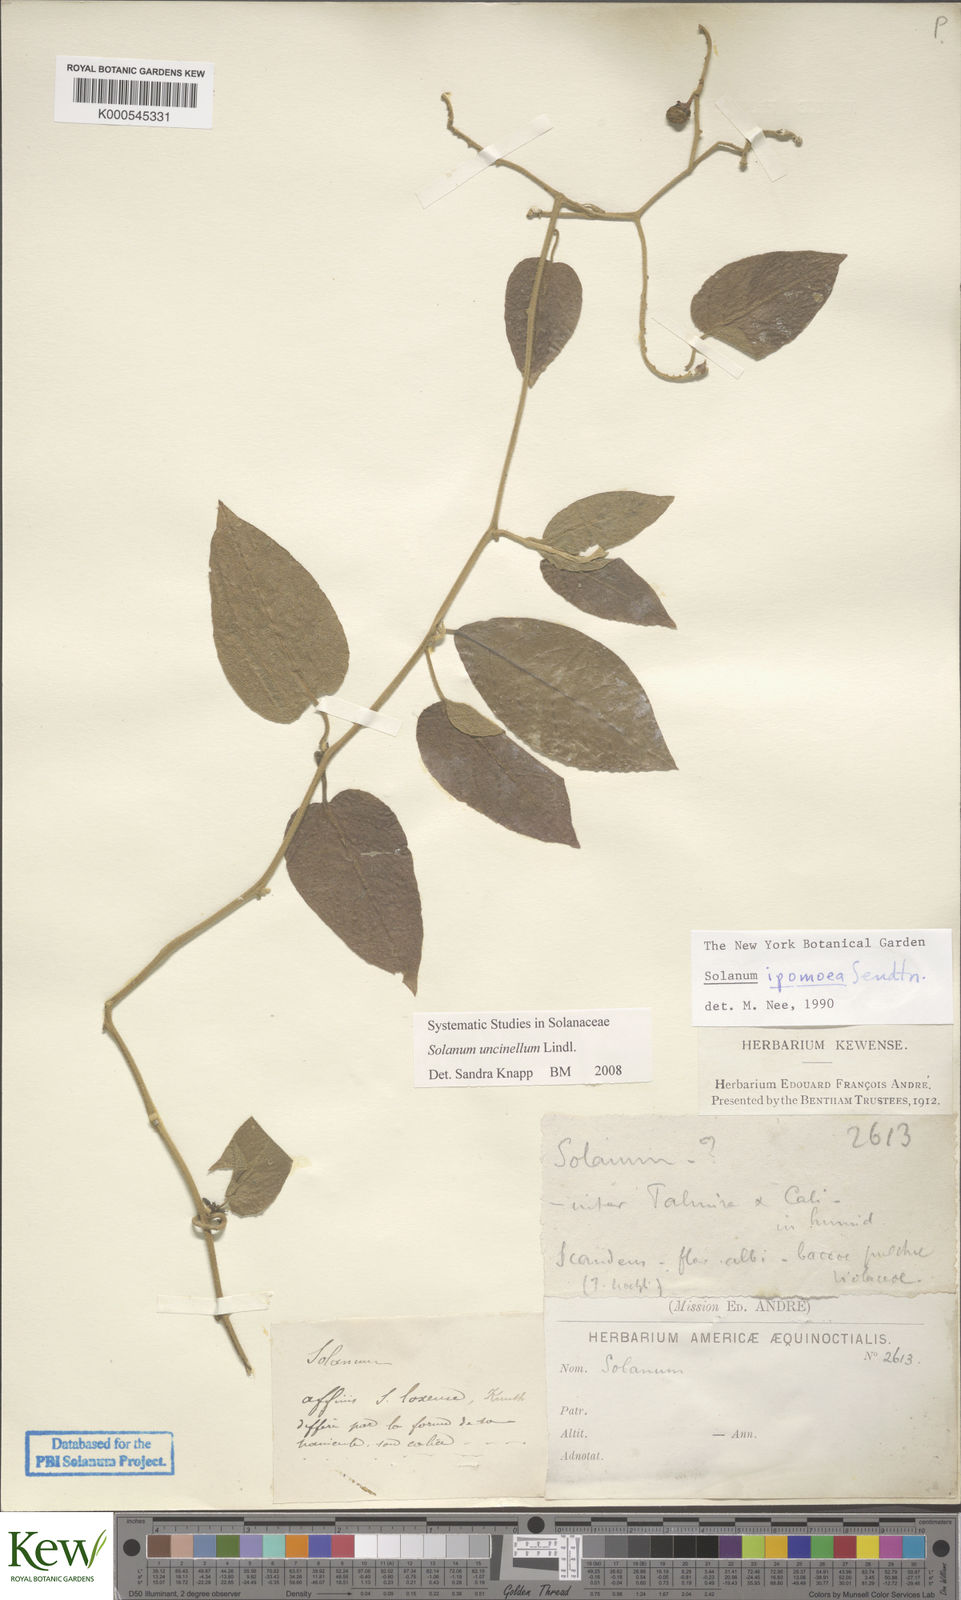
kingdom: Plantae
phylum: Tracheophyta
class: Magnoliopsida
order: Solanales
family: Solanaceae
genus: Solanum
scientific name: Solanum uncinellum
